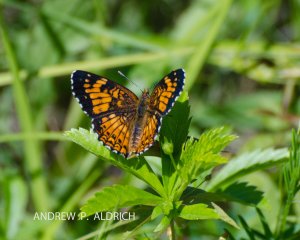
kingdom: Animalia
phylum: Arthropoda
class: Insecta
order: Lepidoptera
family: Nymphalidae
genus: Chlosyne
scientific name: Chlosyne harrisii
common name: Harris's Checkerspot
